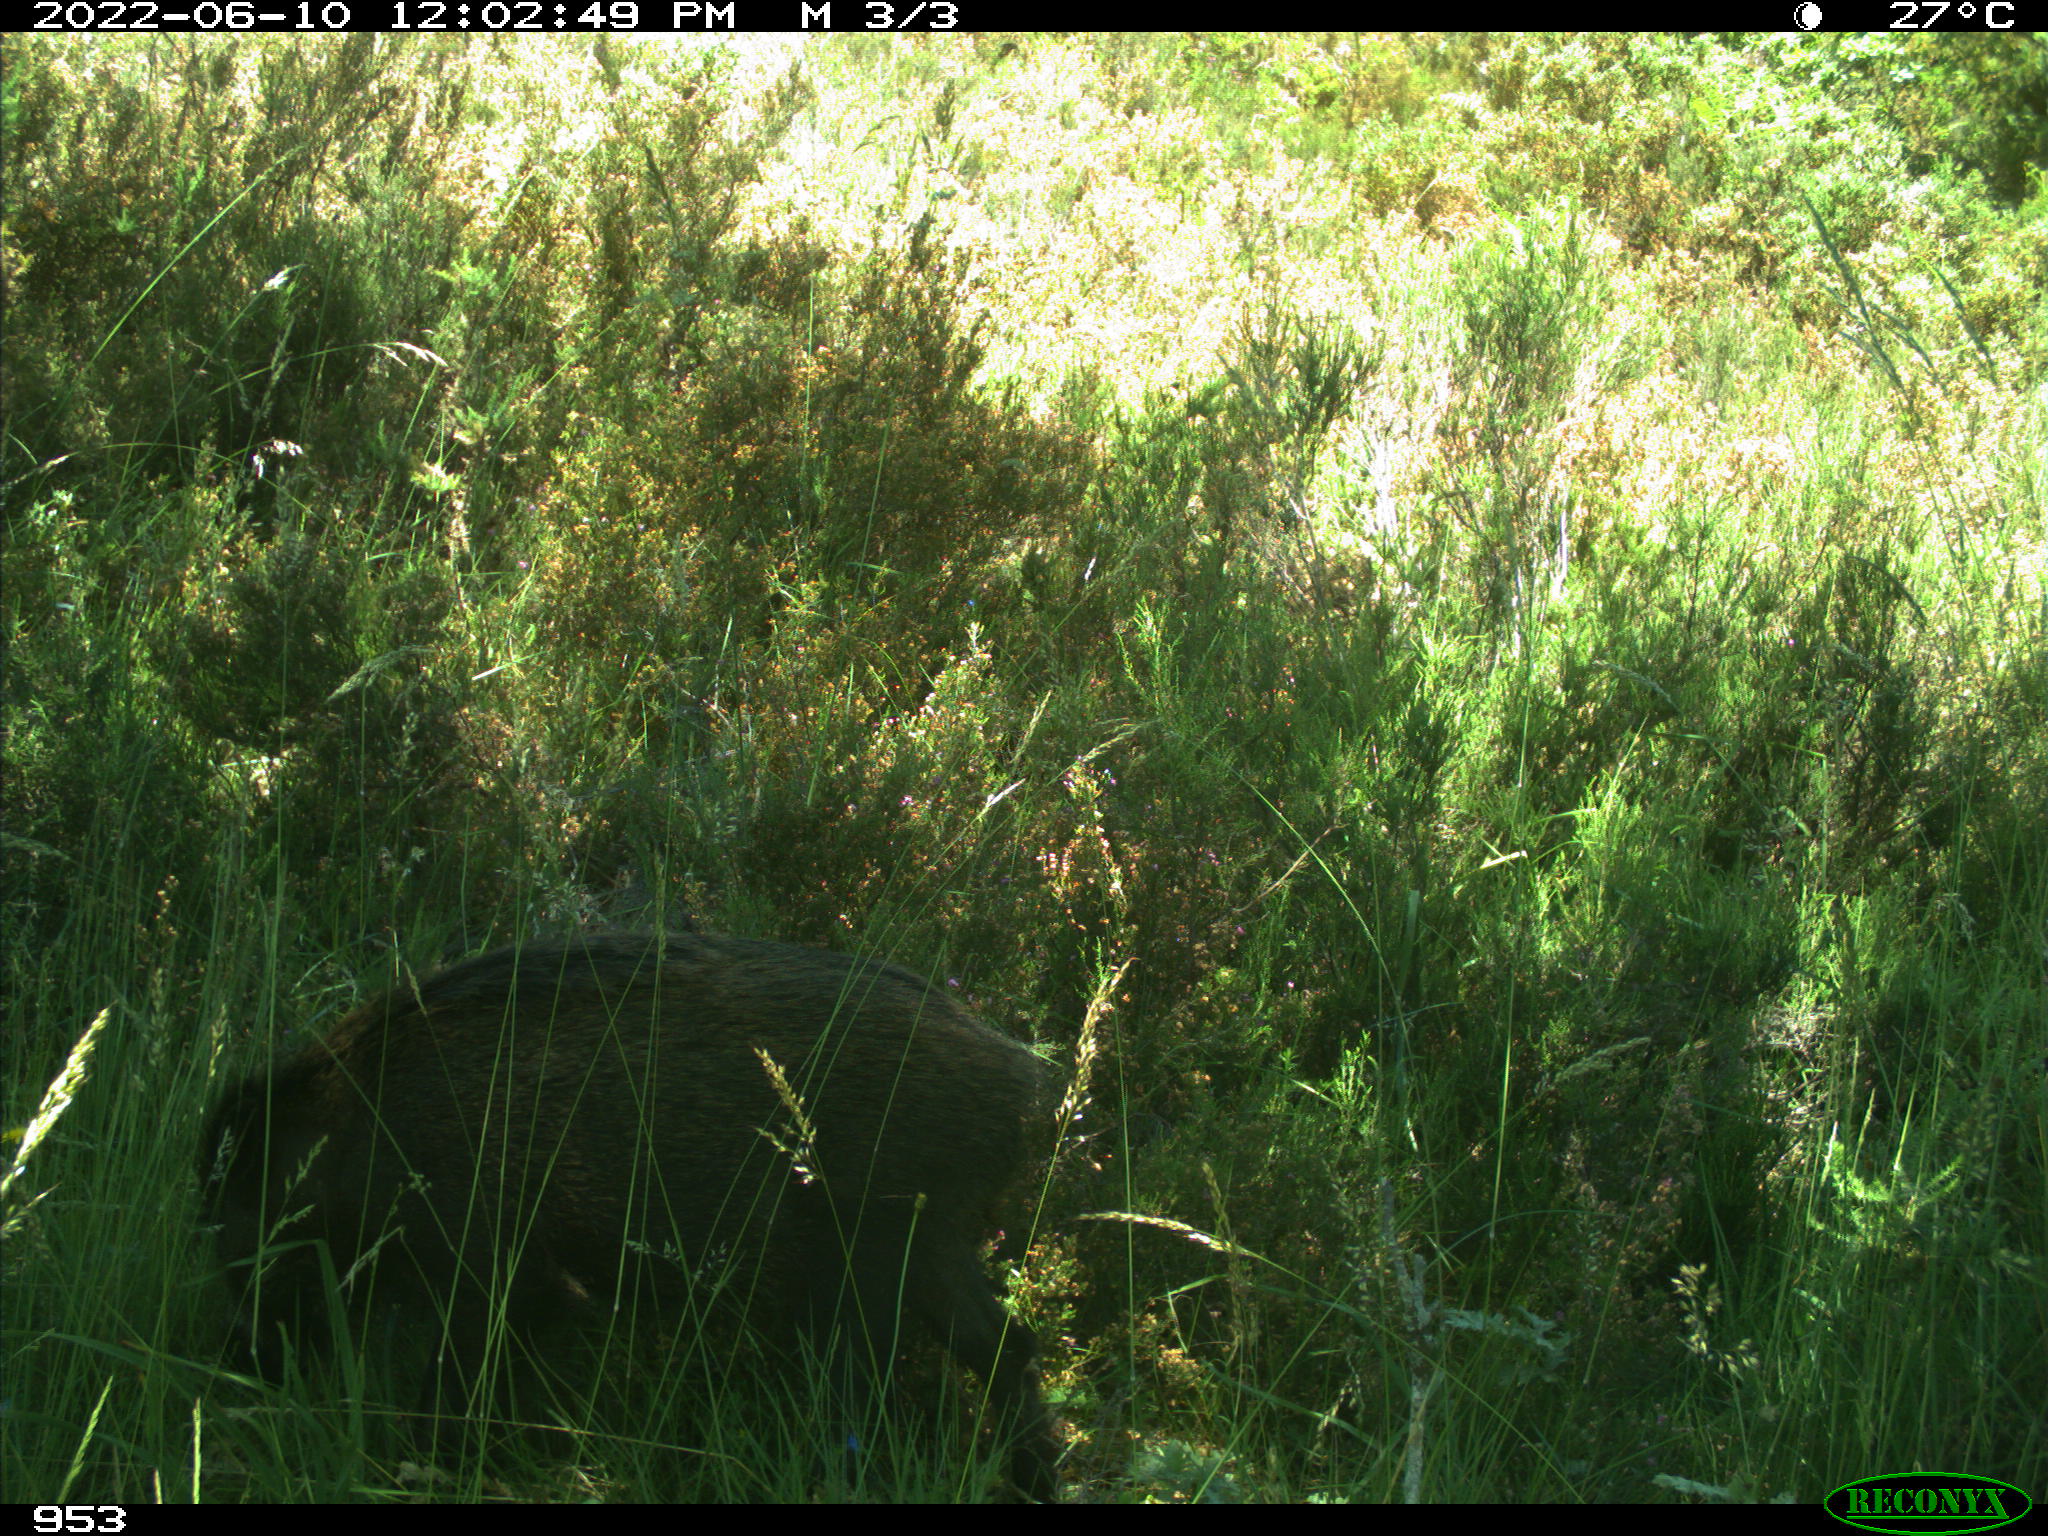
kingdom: Animalia
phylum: Chordata
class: Mammalia
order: Artiodactyla
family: Suidae
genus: Sus
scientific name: Sus scrofa
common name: Wild boar
